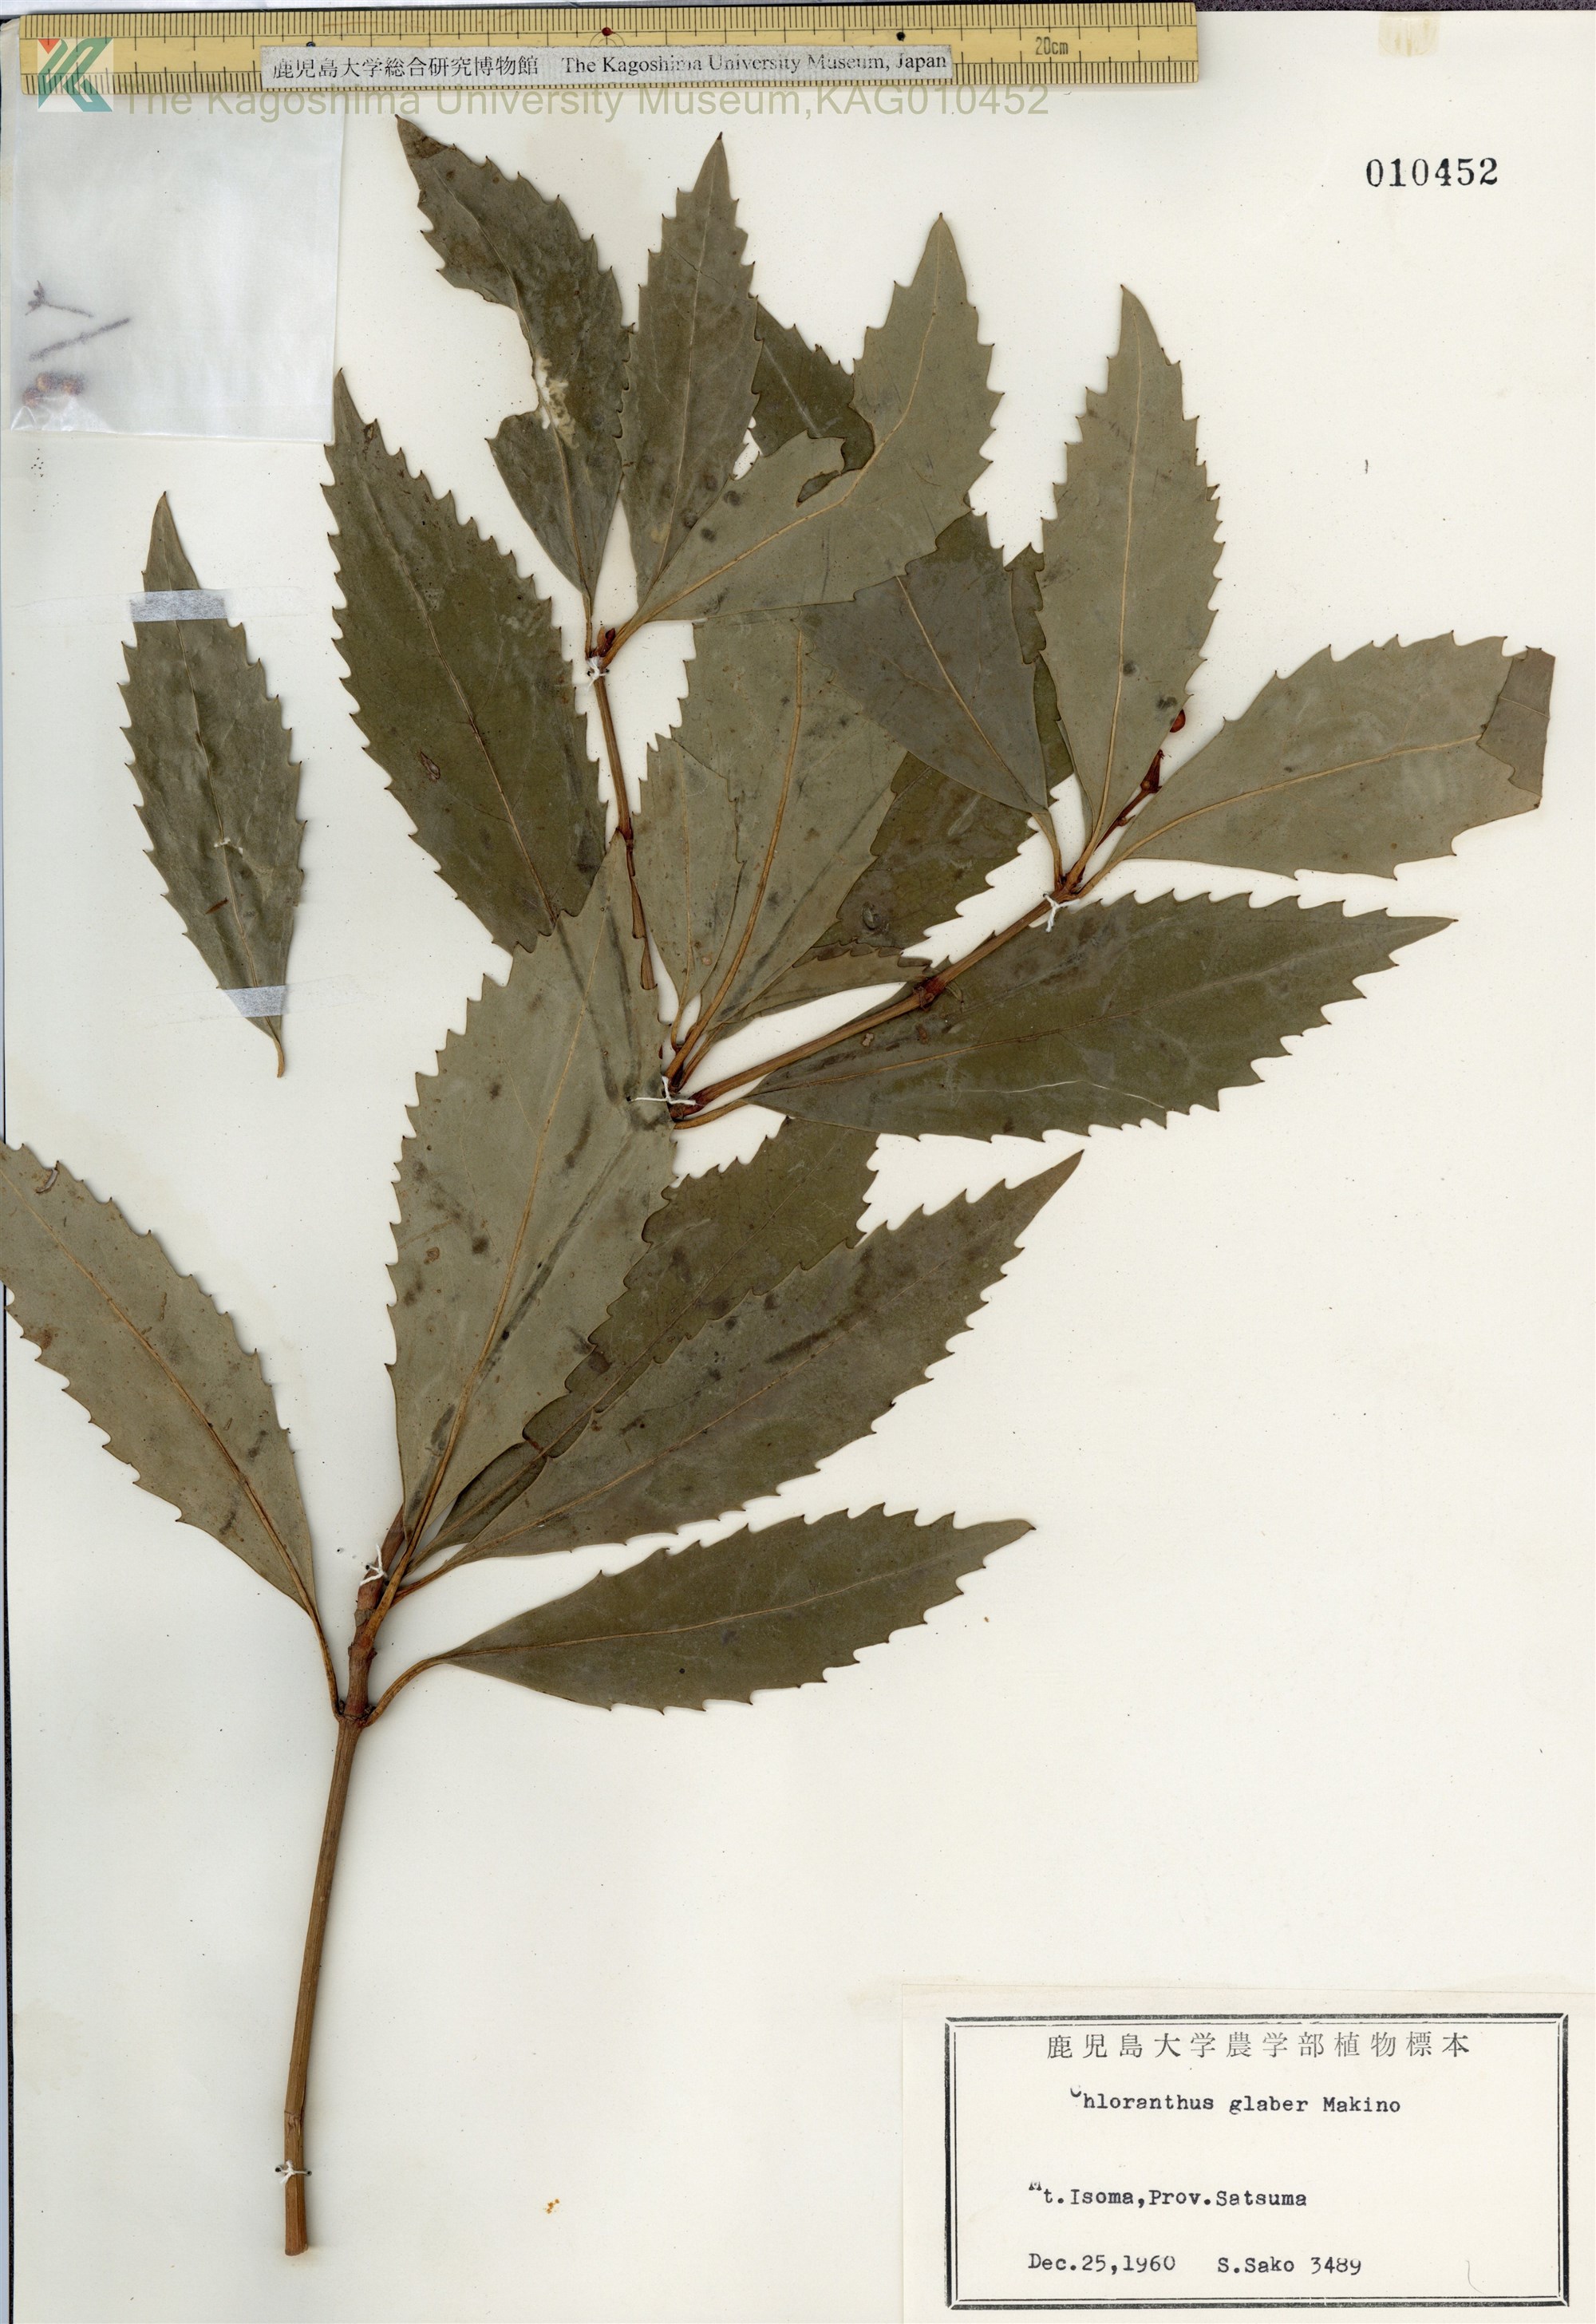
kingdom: Plantae
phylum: Tracheophyta
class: Magnoliopsida
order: Chloranthales
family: Chloranthaceae
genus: Sarcandra
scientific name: Sarcandra glabra
